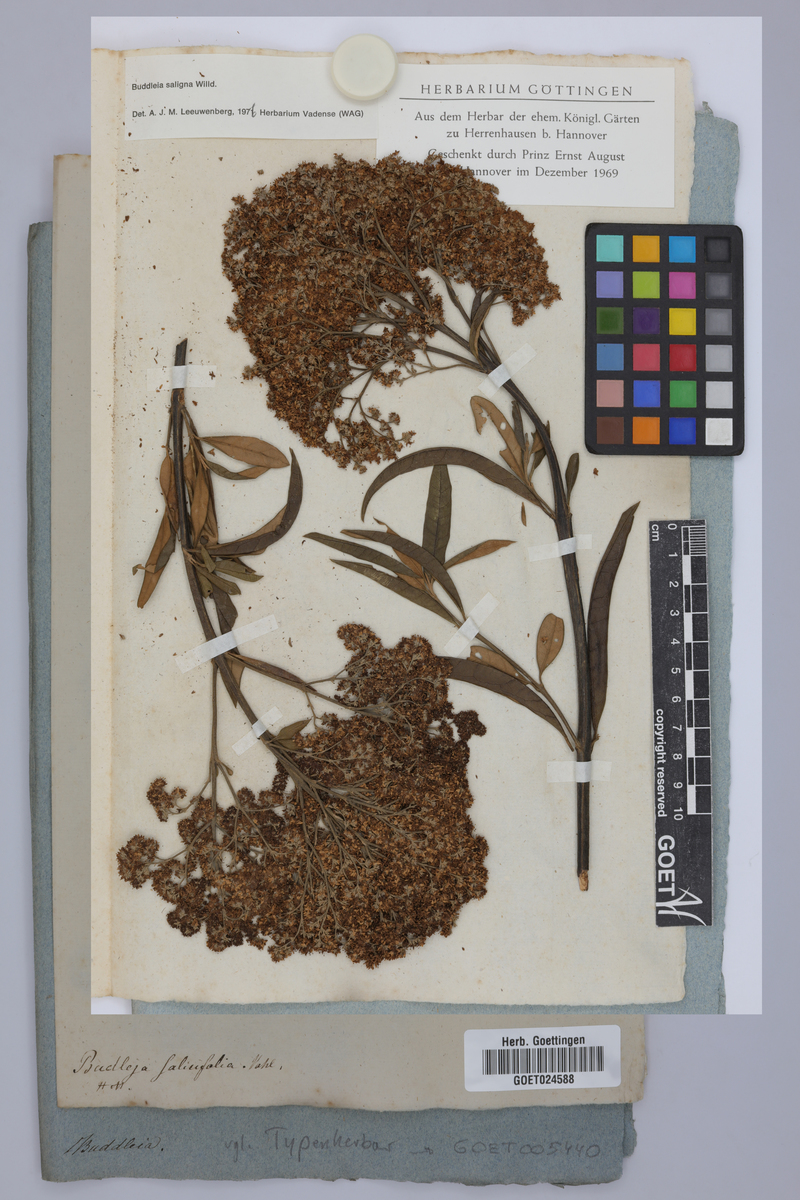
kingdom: Plantae
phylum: Tracheophyta
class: Magnoliopsida
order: Lamiales
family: Scrophulariaceae
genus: Buddleja
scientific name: Buddleja saligna
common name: False olive
